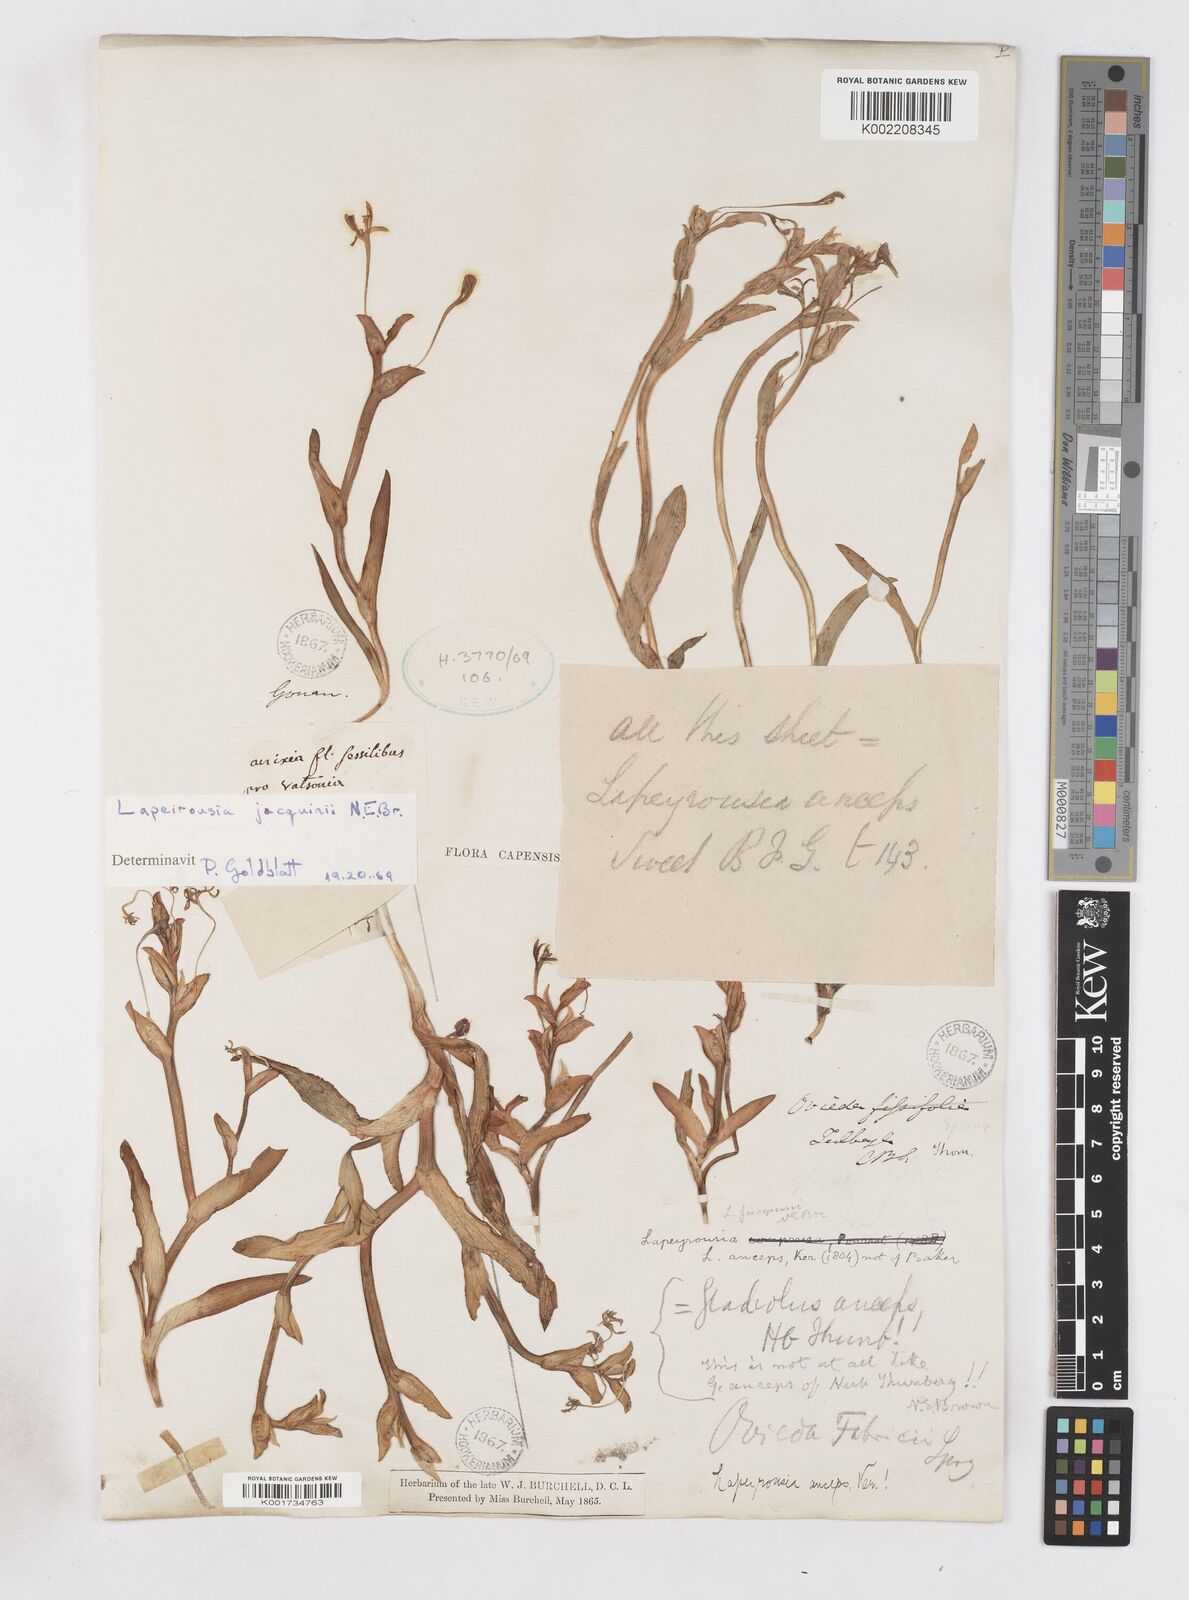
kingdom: Plantae
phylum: Tracheophyta
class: Liliopsida
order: Asparagales
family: Iridaceae
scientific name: Iridaceae
